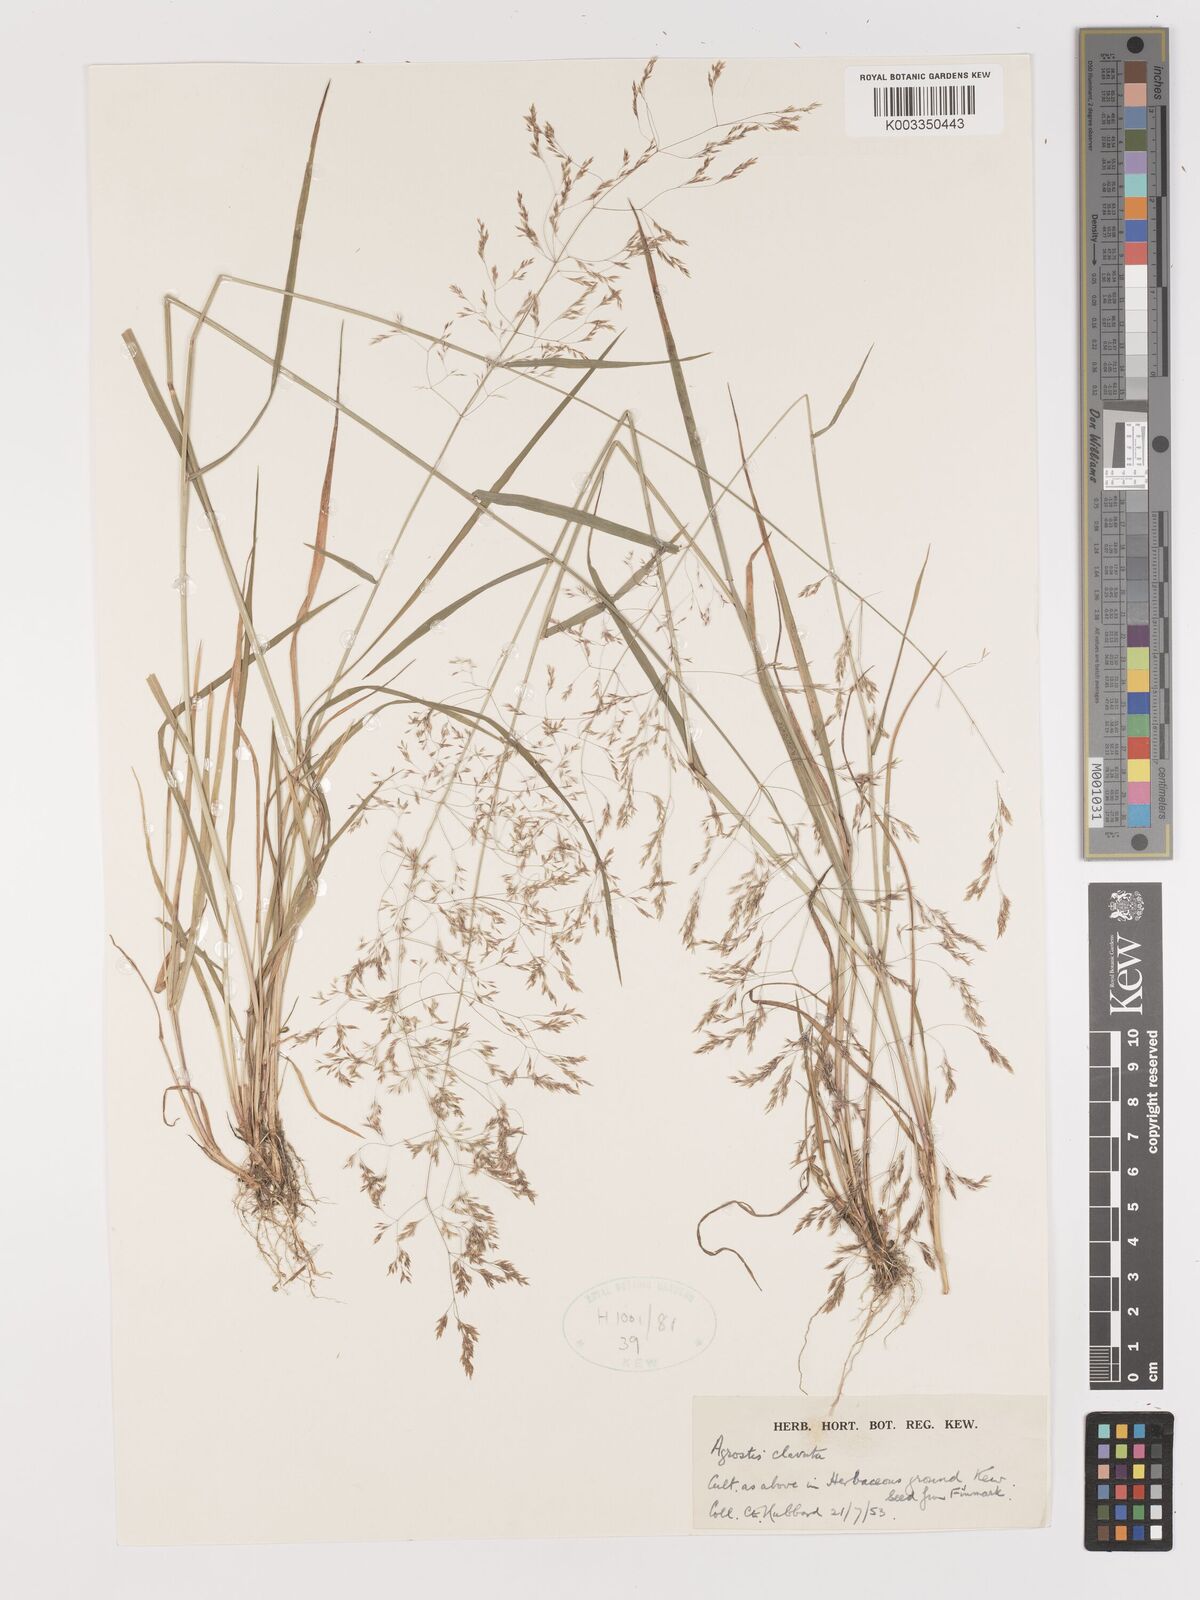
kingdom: Plantae
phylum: Tracheophyta
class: Liliopsida
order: Poales
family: Poaceae
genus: Agrostis
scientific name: Agrostis clavata
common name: Clavate bent
